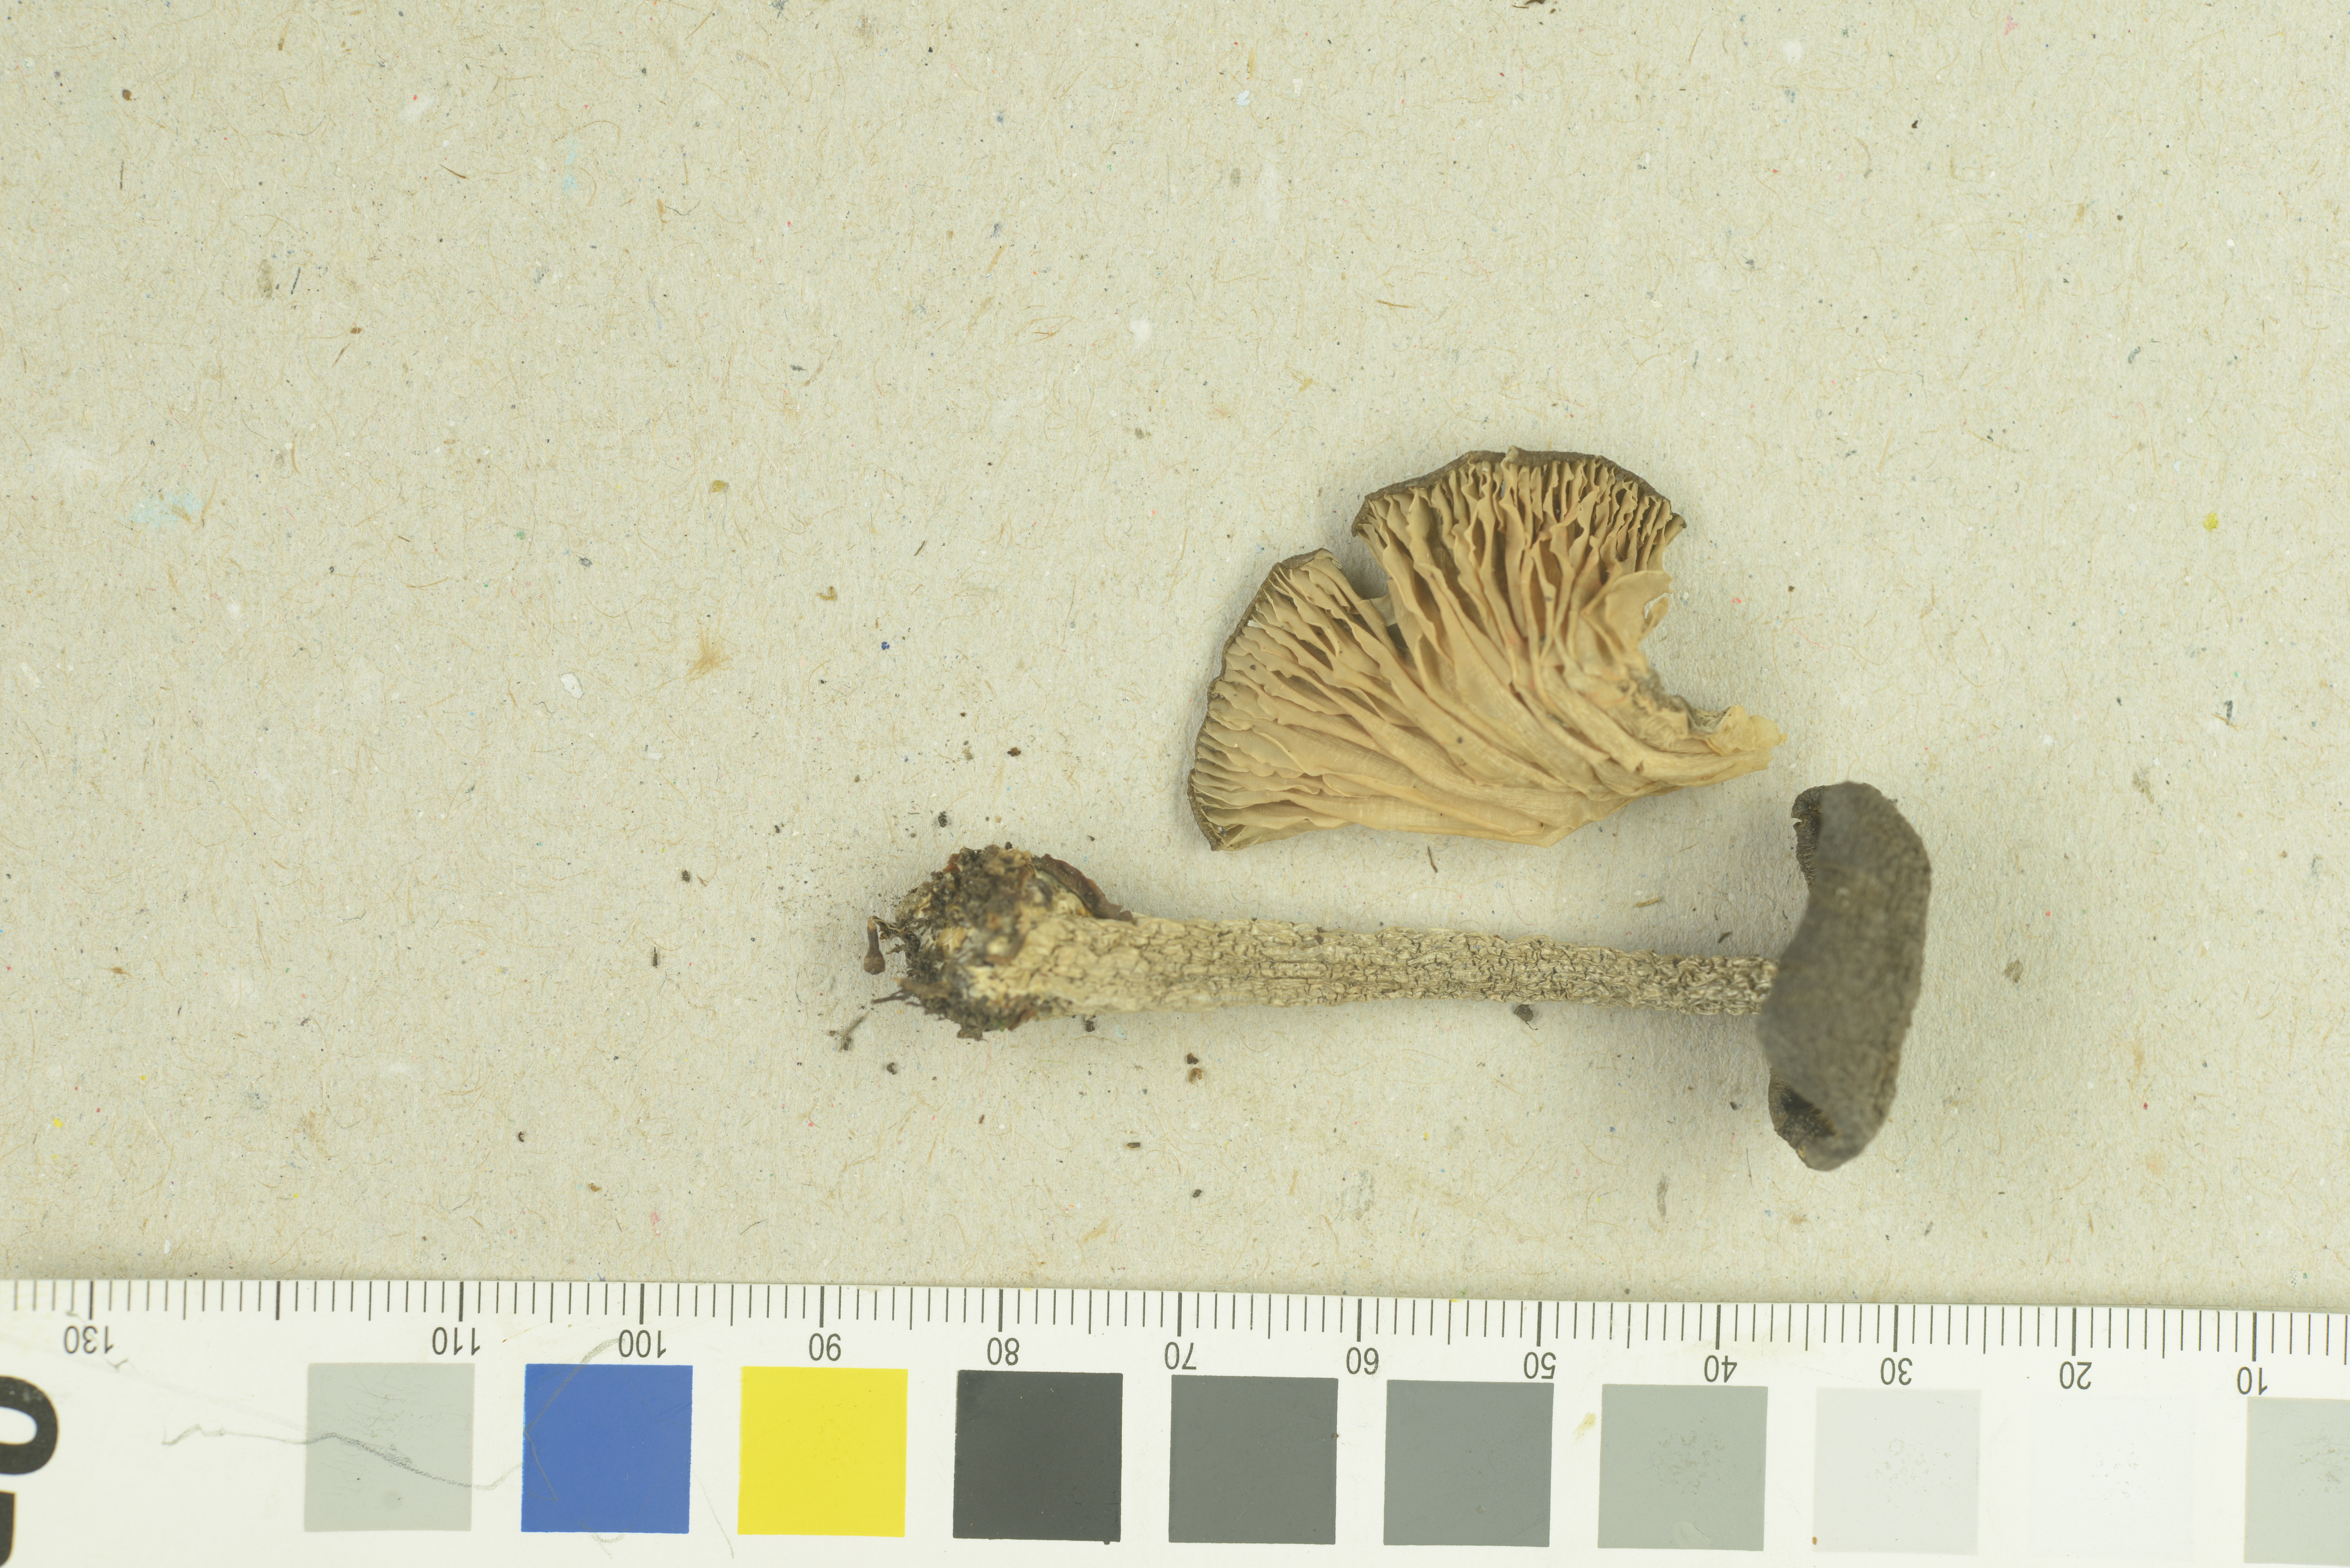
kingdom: Fungi
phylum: Basidiomycota
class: Agaricomycetes
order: Agaricales
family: Entolomataceae
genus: Entoloma
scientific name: Entoloma
